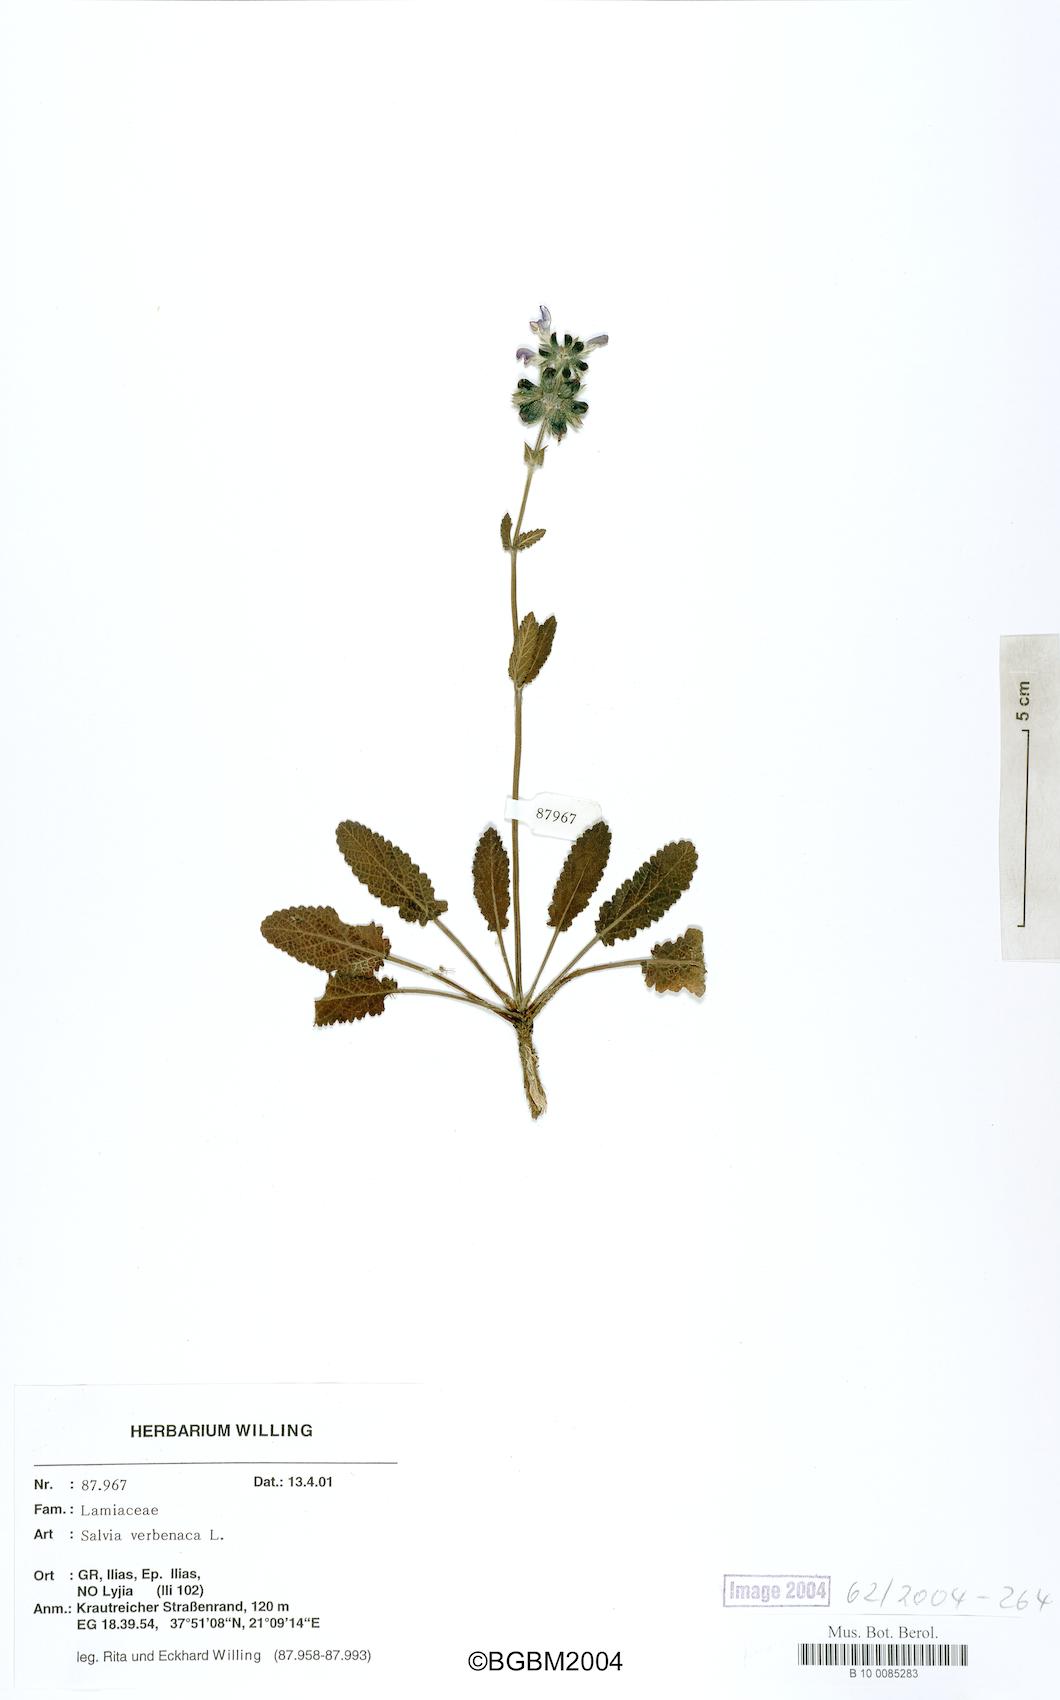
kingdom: Plantae
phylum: Tracheophyta
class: Magnoliopsida
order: Lamiales
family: Lamiaceae
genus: Salvia
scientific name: Salvia verbenaca
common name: Wild clary
